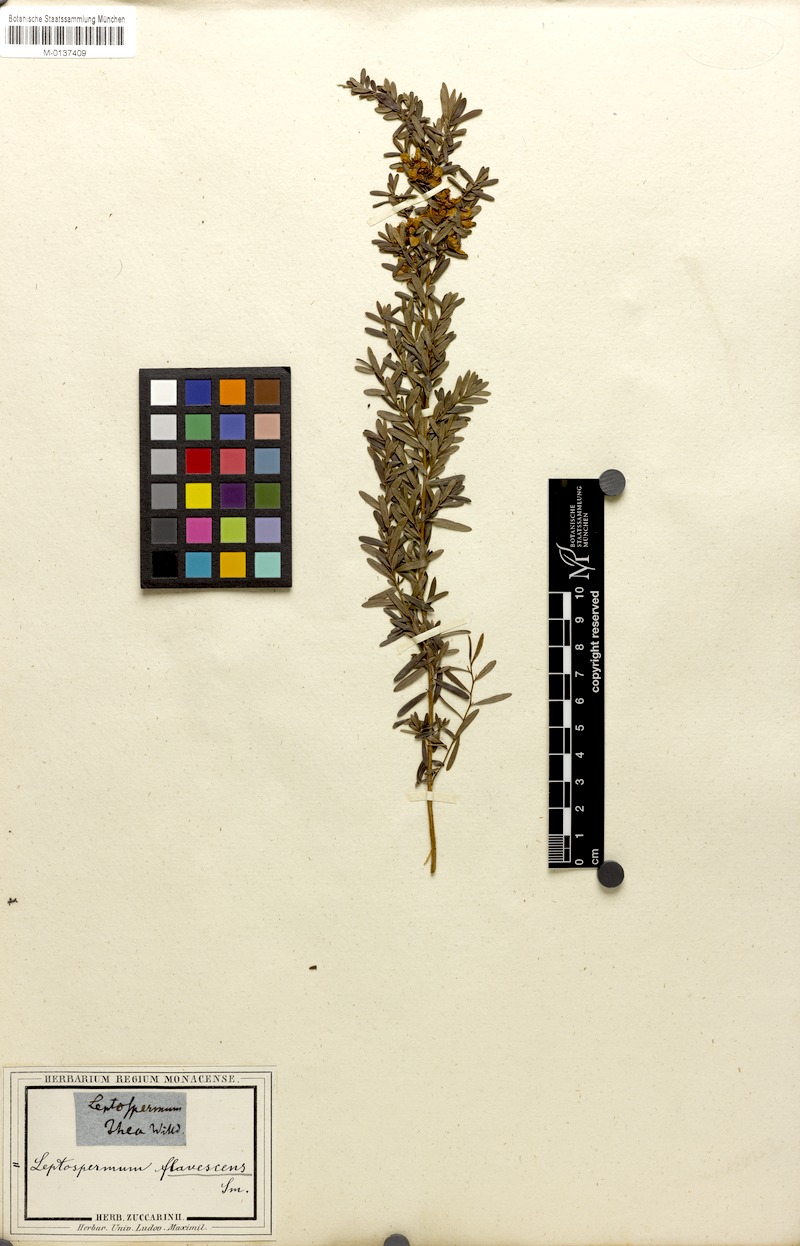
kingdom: Plantae
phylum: Tracheophyta
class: Magnoliopsida
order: Myrtales
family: Myrtaceae
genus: Leptospermum
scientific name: Leptospermum polygalifolium
